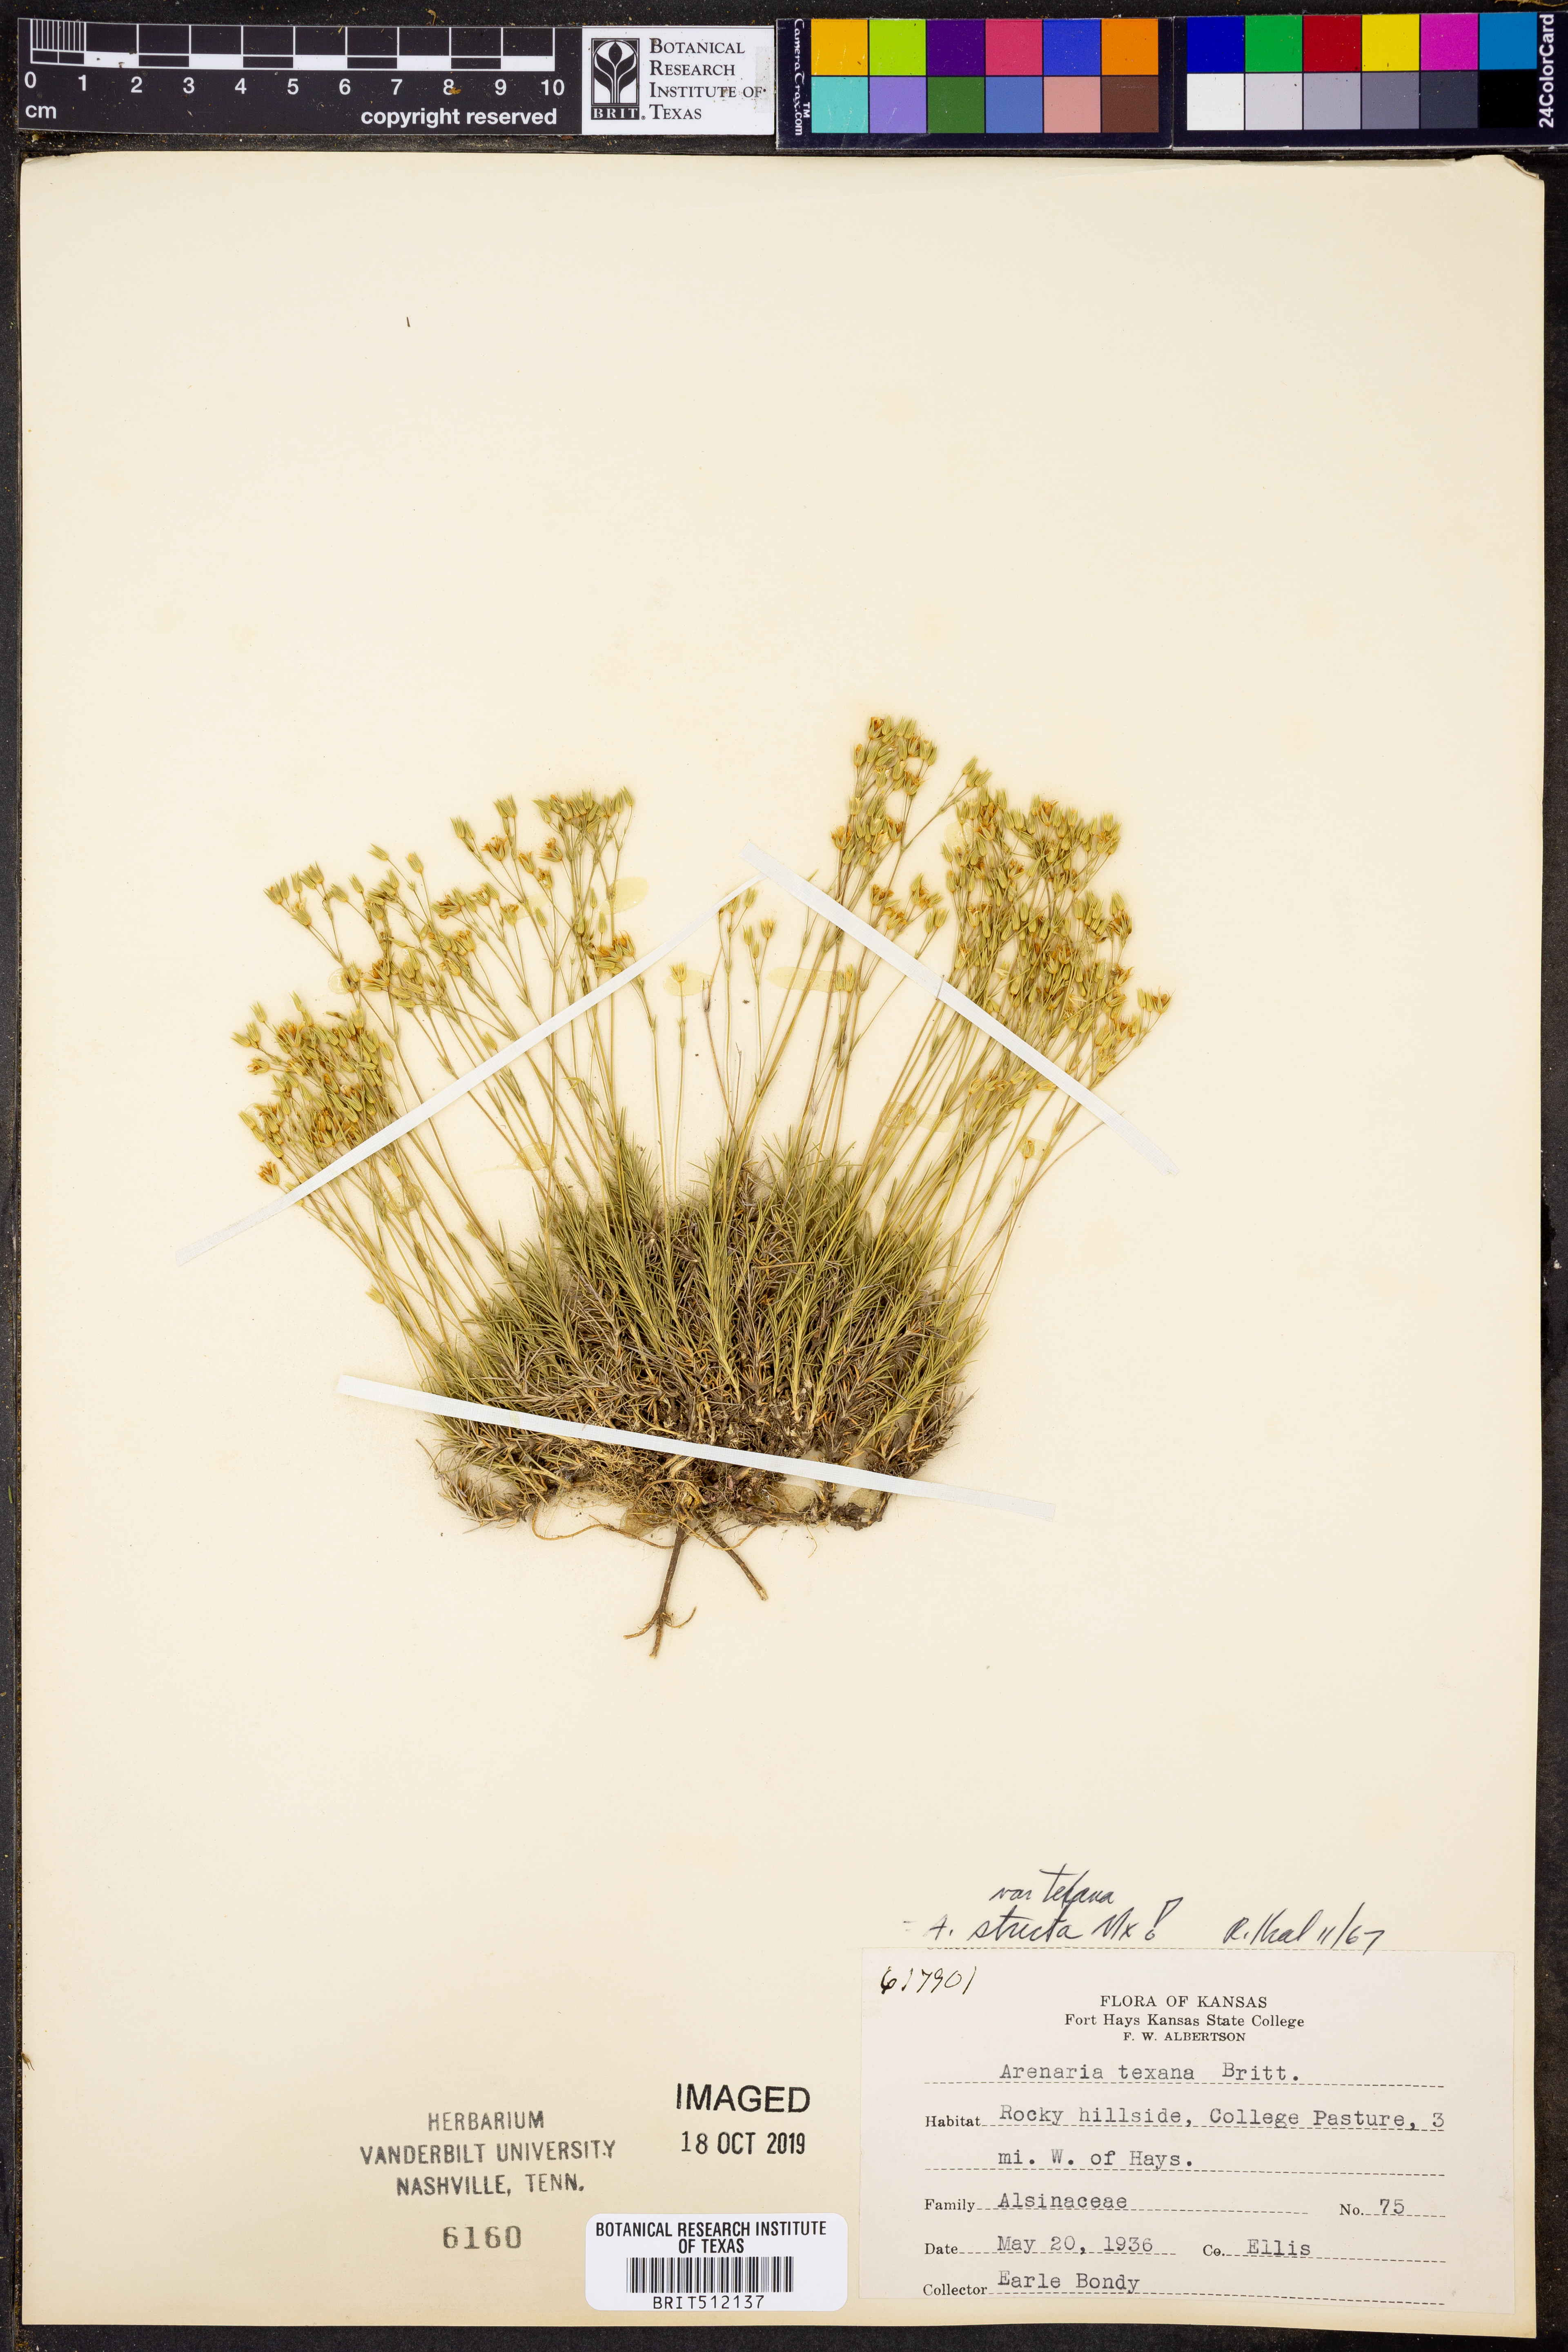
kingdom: Plantae
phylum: Tracheophyta
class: Magnoliopsida
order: Caryophyllales
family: Caryophyllaceae
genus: Sabulina
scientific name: Sabulina michauxii
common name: Michaux's stitchwort
